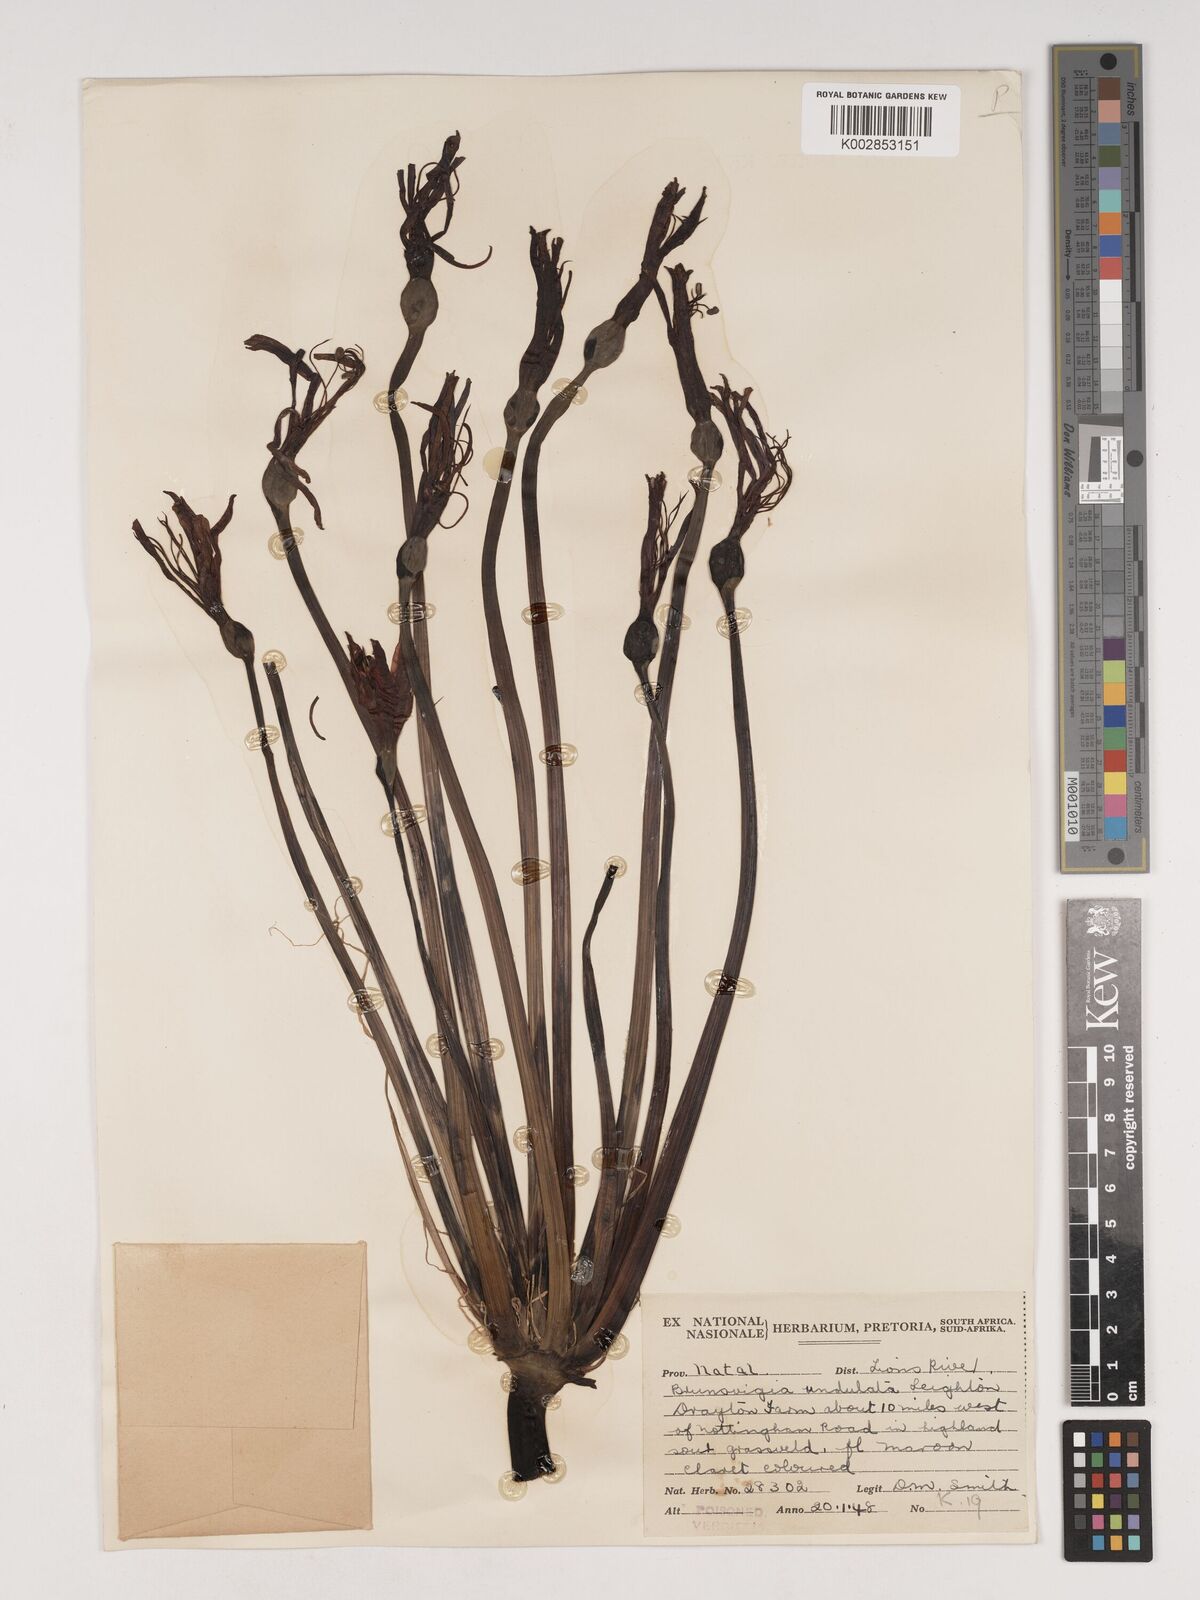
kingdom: Plantae
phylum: Tracheophyta
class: Liliopsida
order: Asparagales
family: Amaryllidaceae
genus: Brunsvigia
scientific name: Brunsvigia undulata
